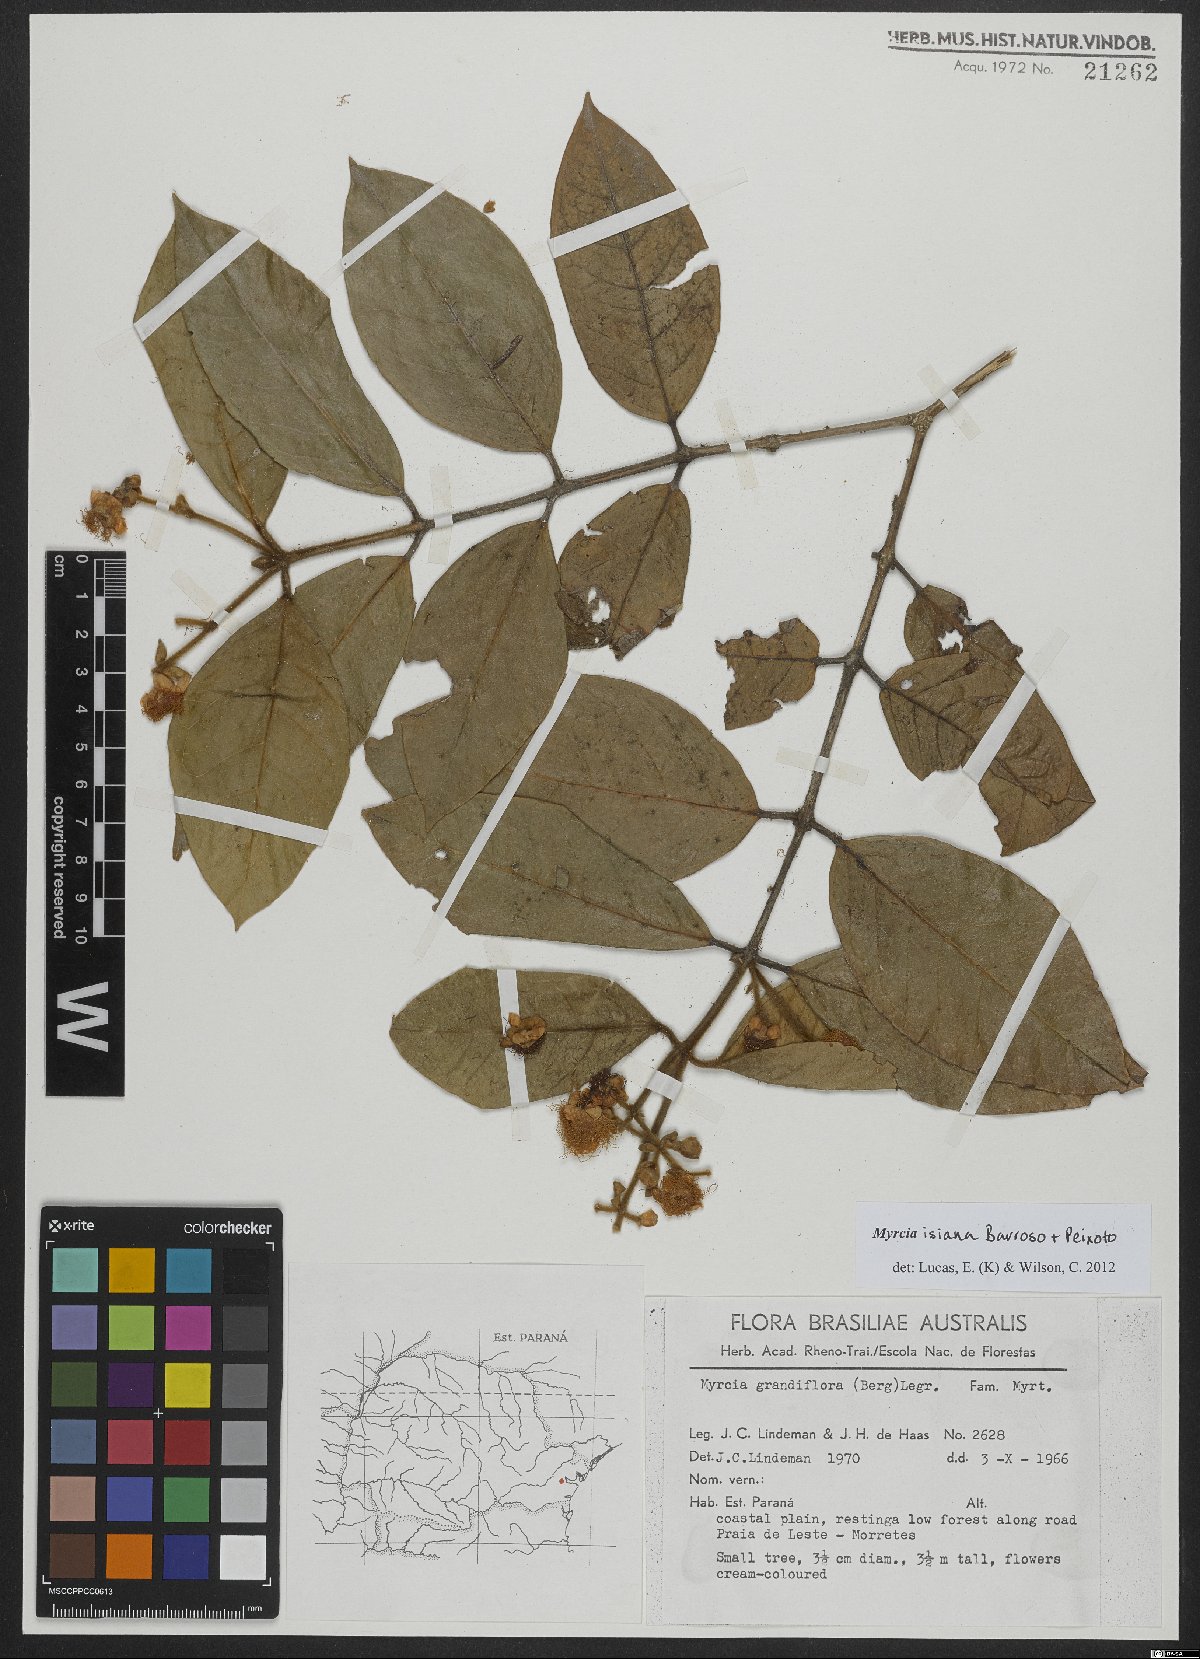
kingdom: Plantae
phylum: Tracheophyta
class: Magnoliopsida
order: Myrtales
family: Myrtaceae
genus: Myrcia
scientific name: Myrcia isaiana
